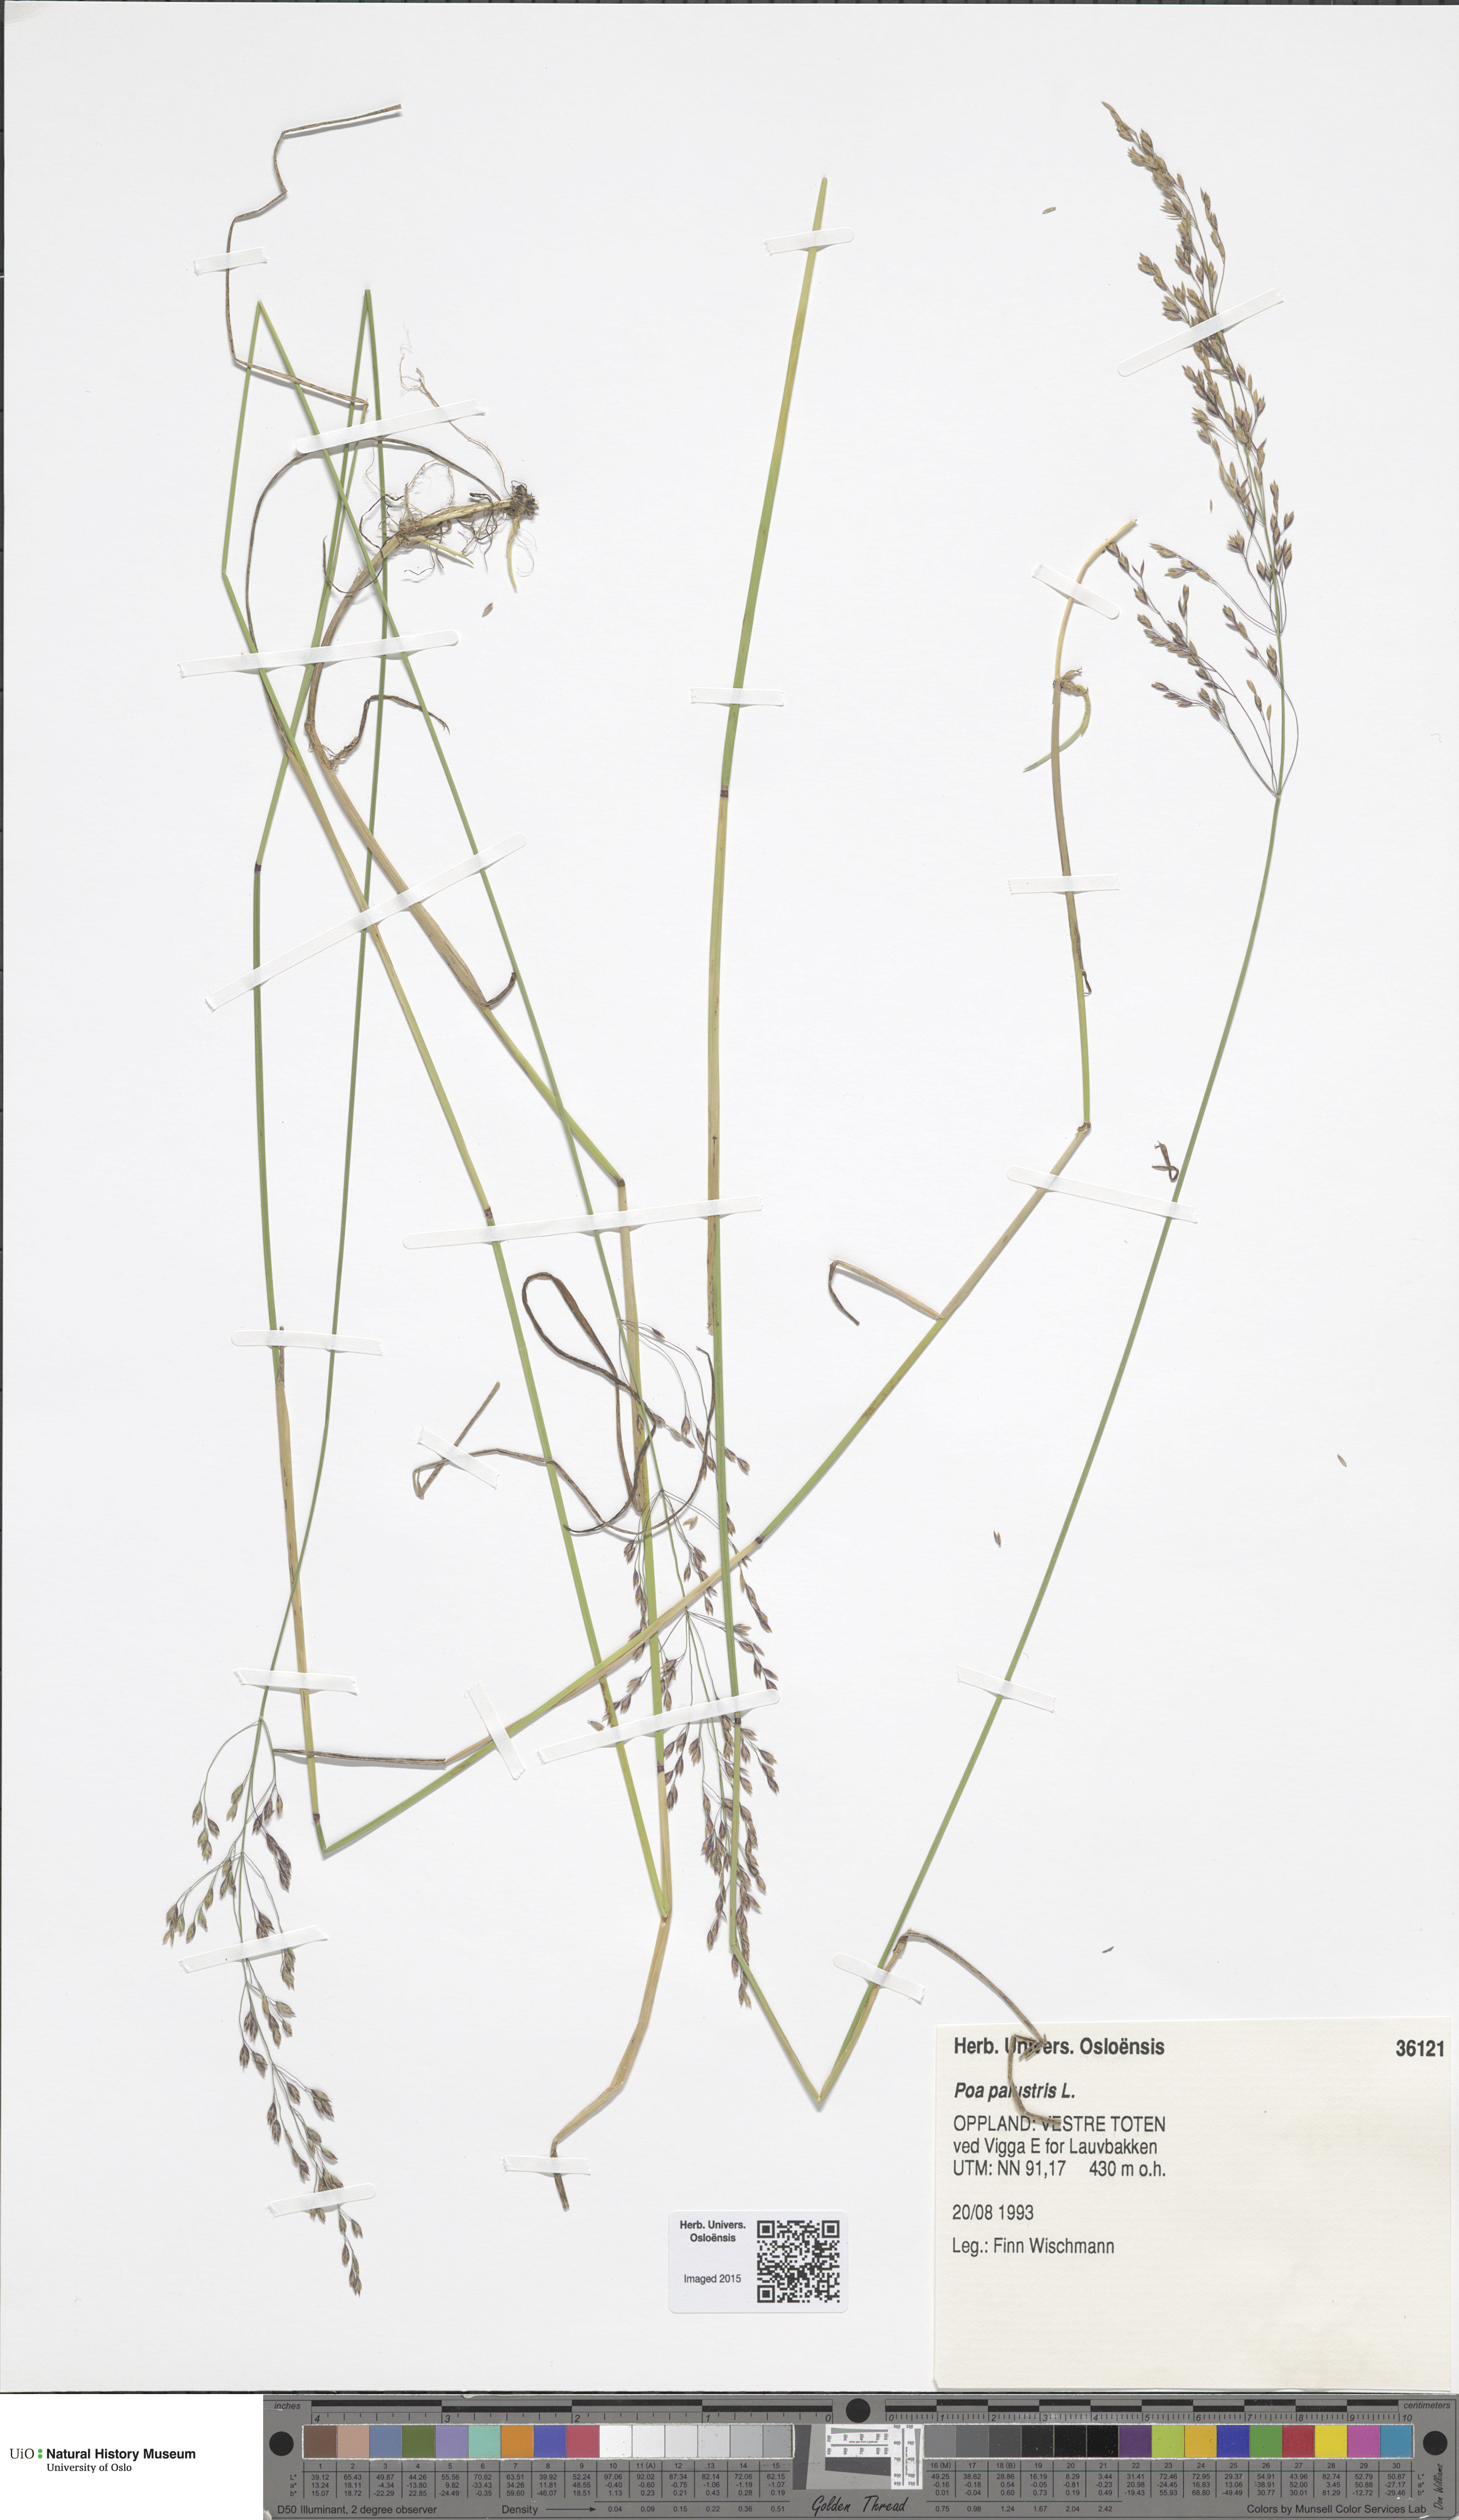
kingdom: Plantae
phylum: Tracheophyta
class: Liliopsida
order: Poales
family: Poaceae
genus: Poa
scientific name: Poa palustris
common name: Swamp meadow-grass
